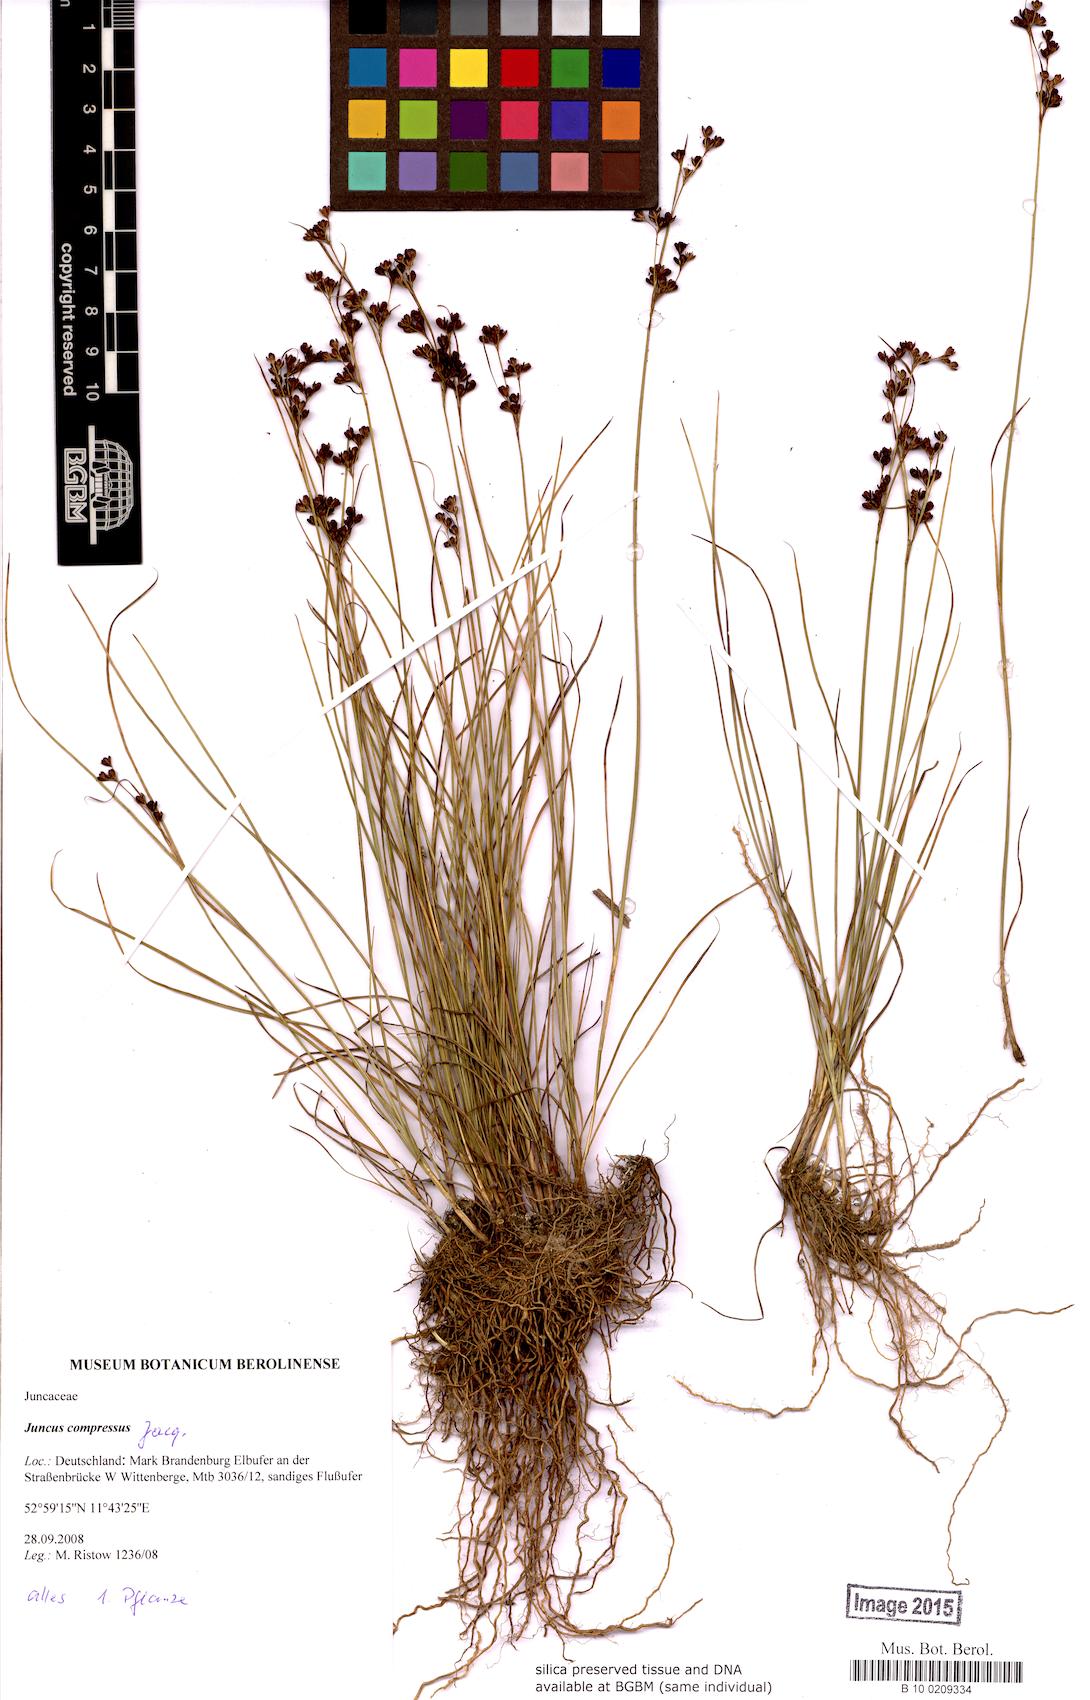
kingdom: Plantae
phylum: Tracheophyta
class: Liliopsida
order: Poales
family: Juncaceae
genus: Juncus
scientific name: Juncus compressus
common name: Round-fruited rush
